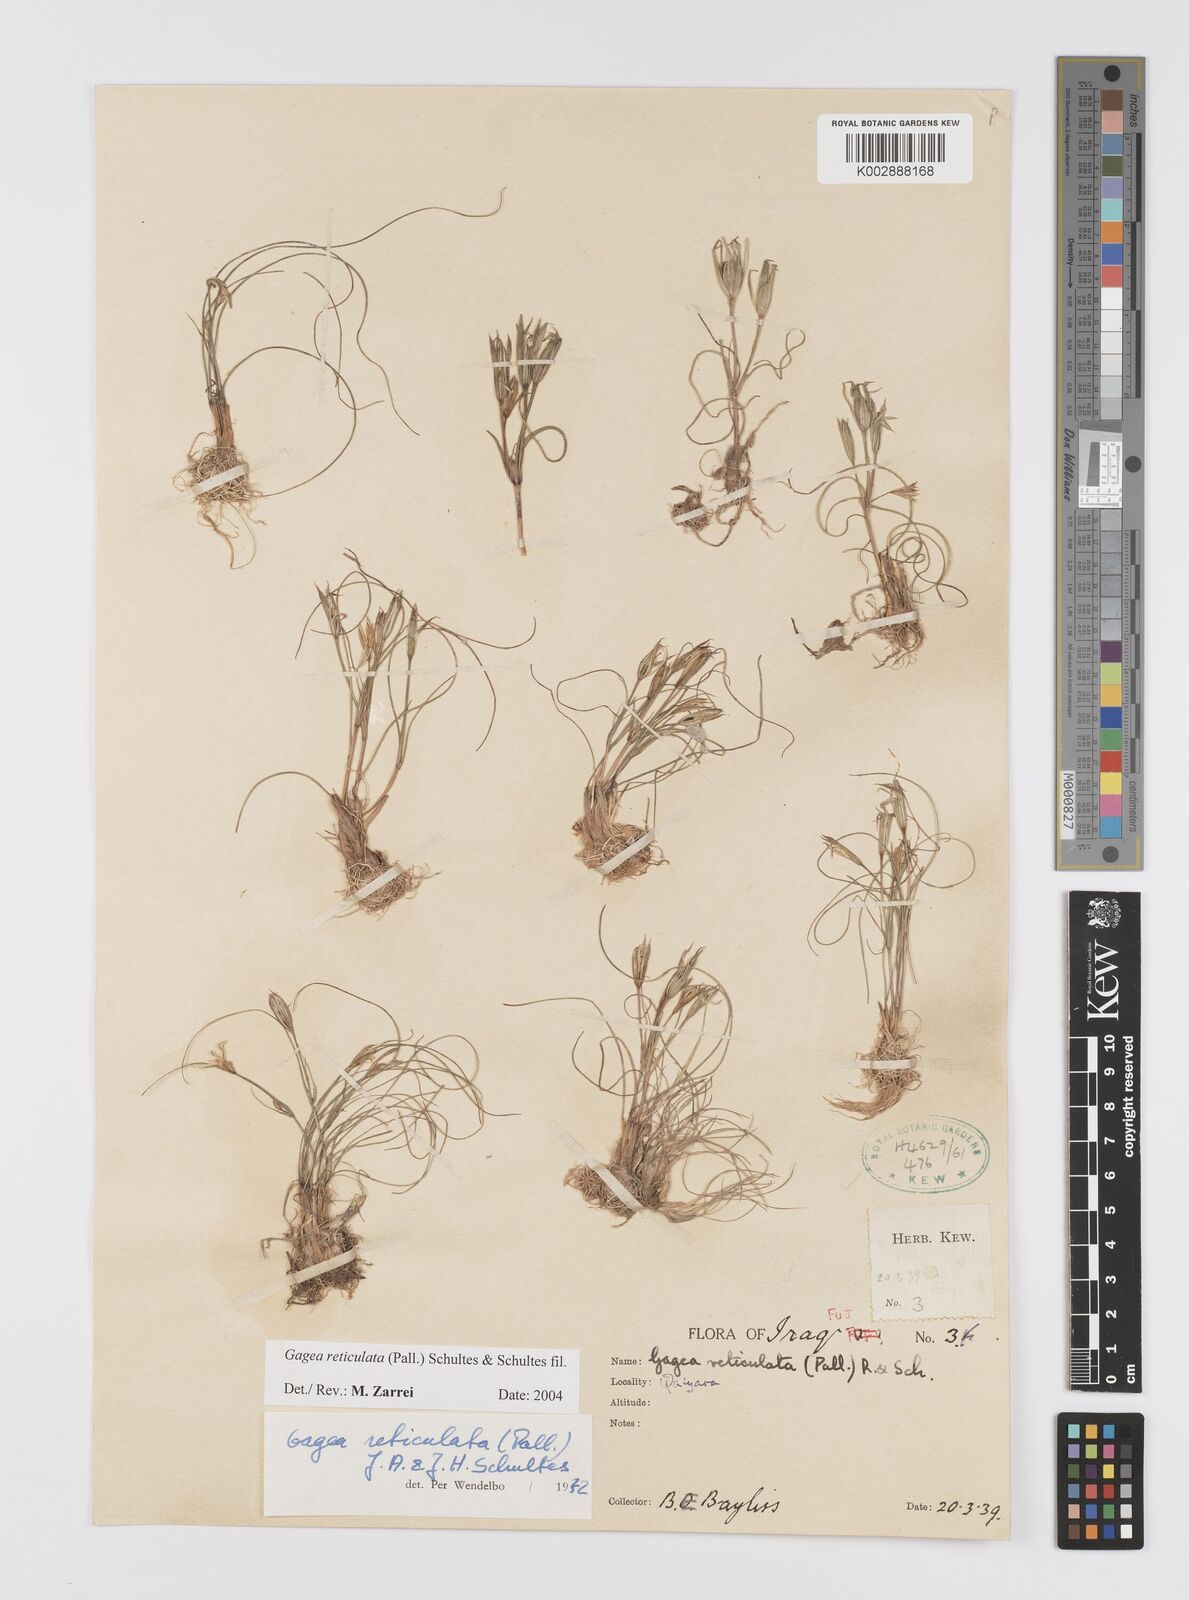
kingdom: Plantae
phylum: Tracheophyta
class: Liliopsida
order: Liliales
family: Liliaceae
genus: Gagea
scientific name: Gagea reticulata
